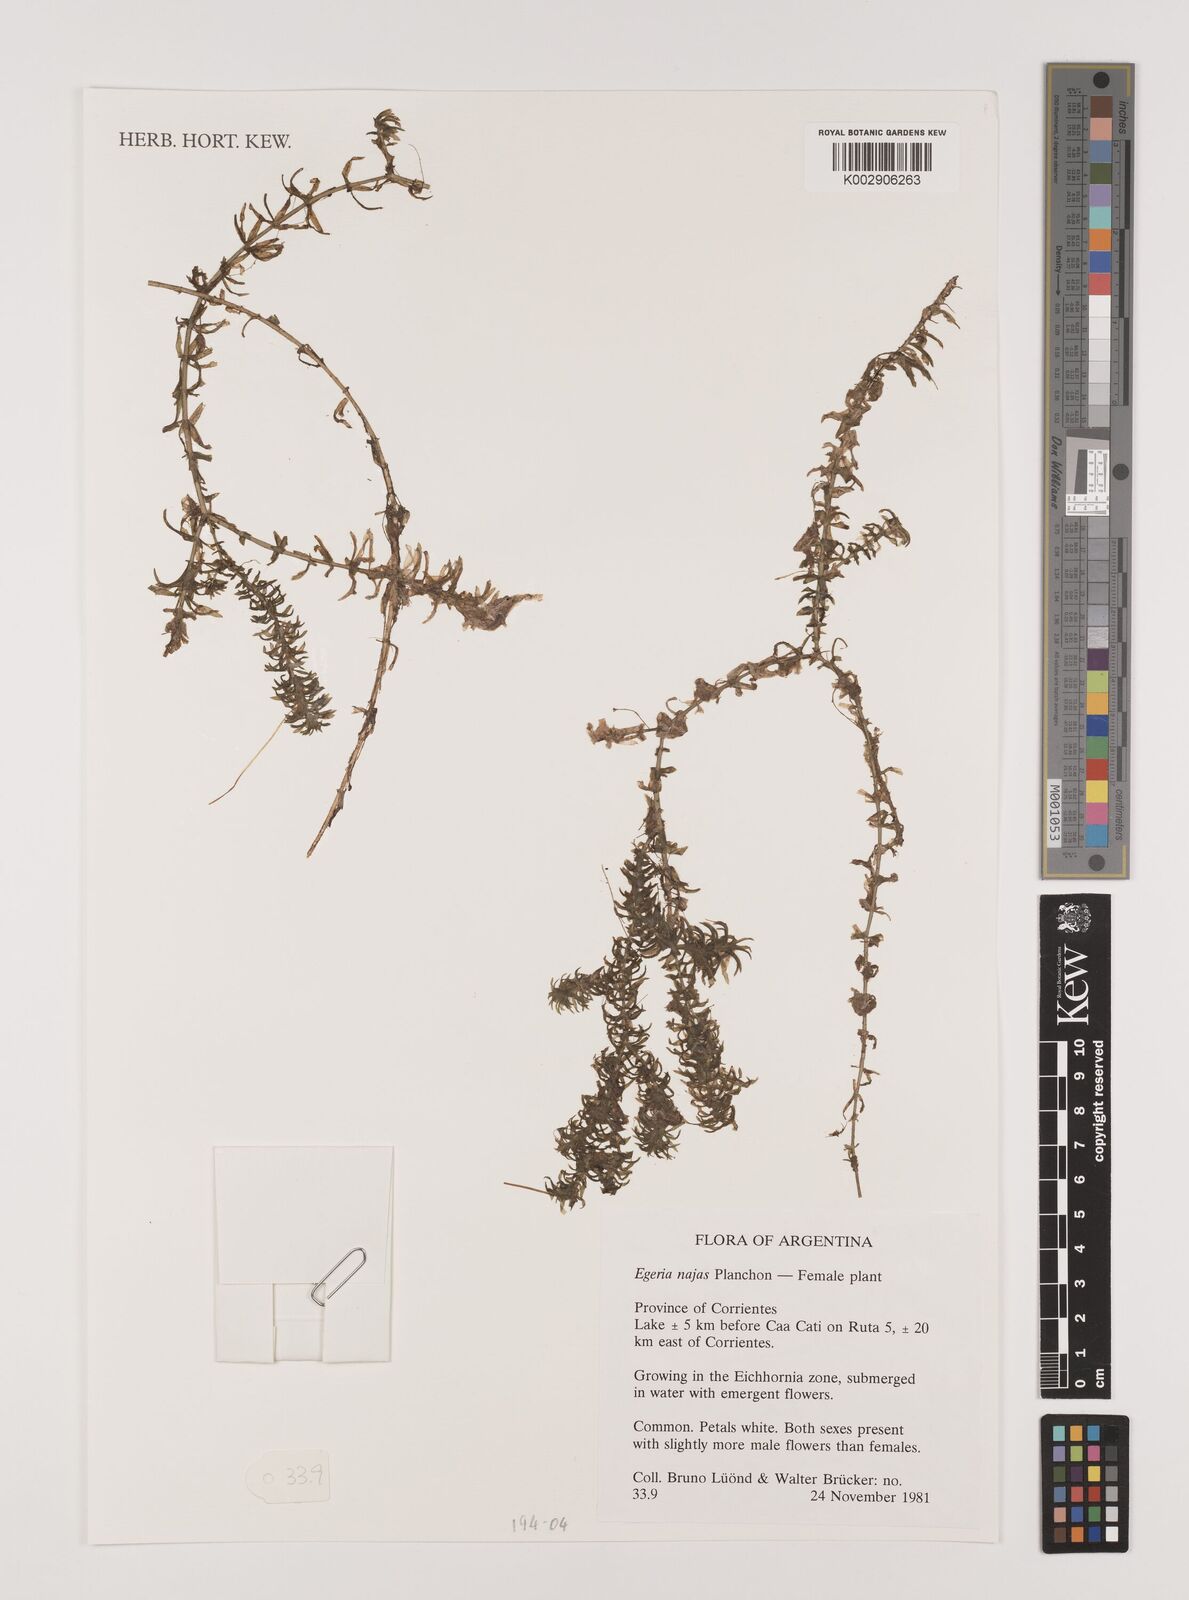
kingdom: Plantae
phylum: Tracheophyta
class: Liliopsida
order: Alismatales
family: Hydrocharitaceae
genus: Elodea
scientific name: Elodea najas
